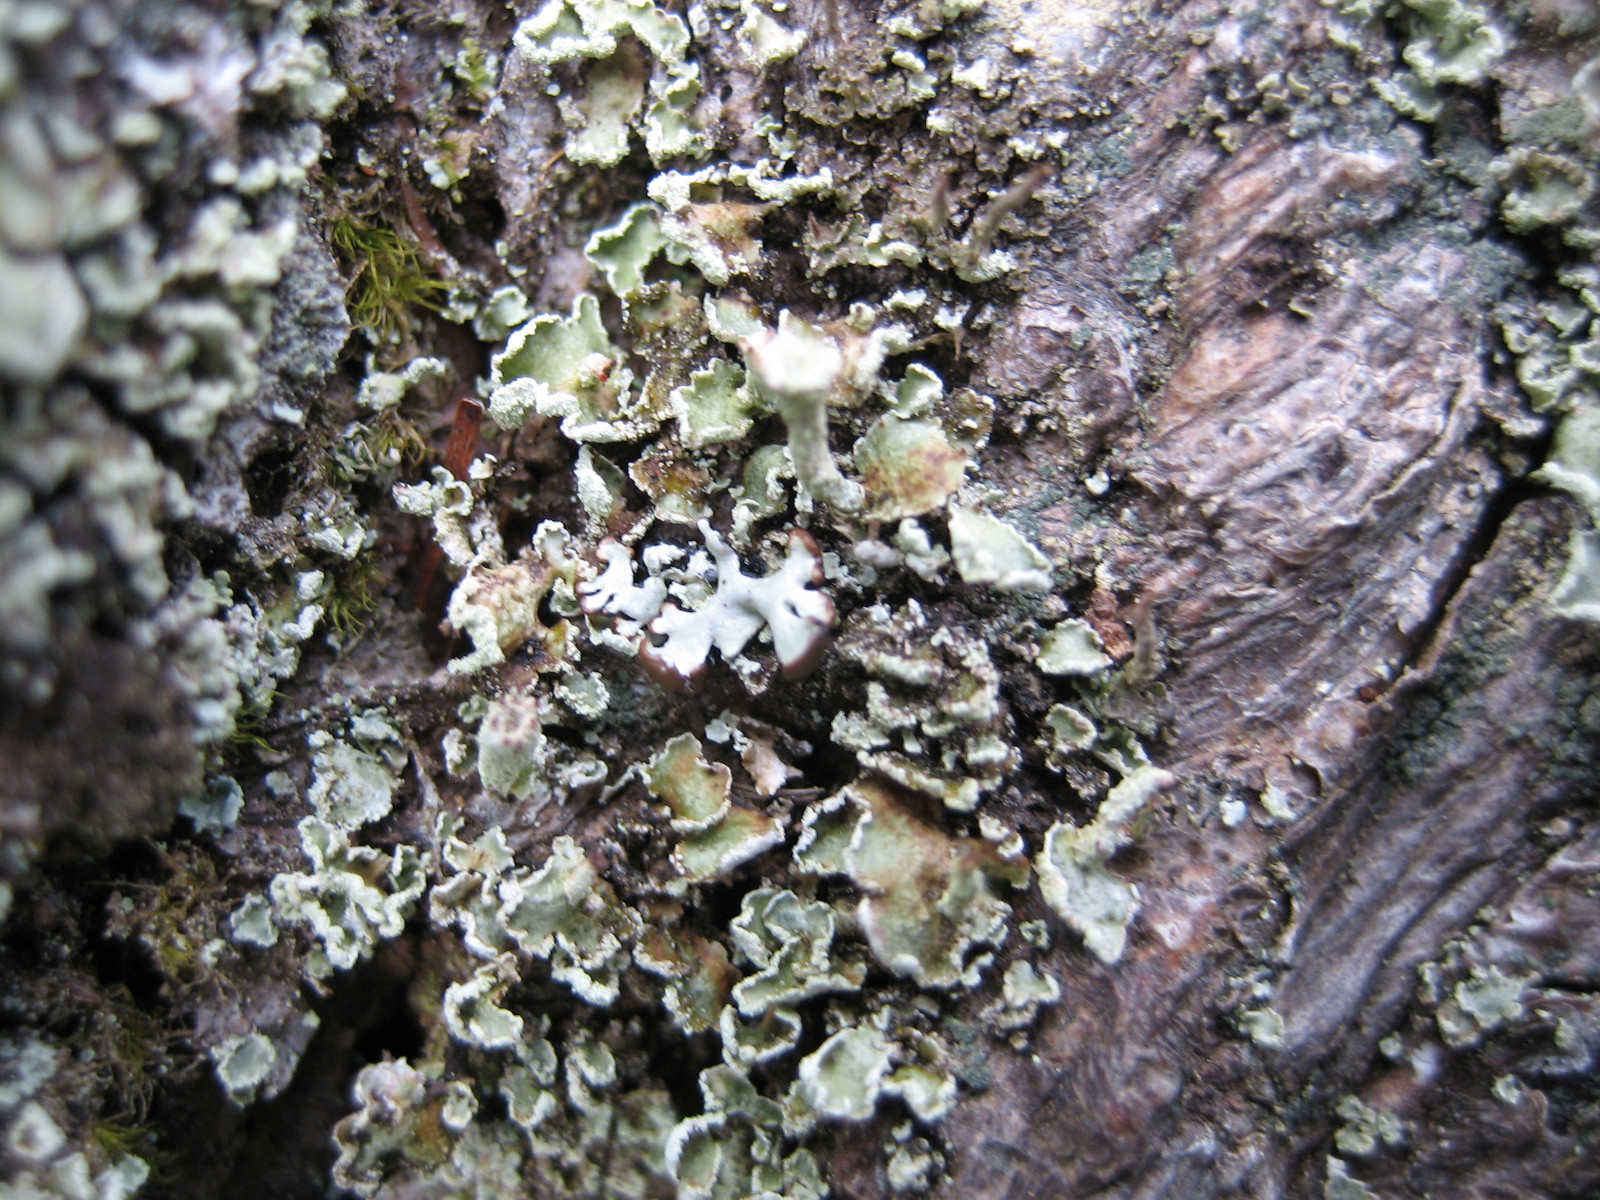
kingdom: Fungi
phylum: Ascomycota
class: Lecanoromycetes
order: Lecanorales
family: Cladoniaceae
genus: Cladonia
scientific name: Cladonia digitata
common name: finger-bægerlav
